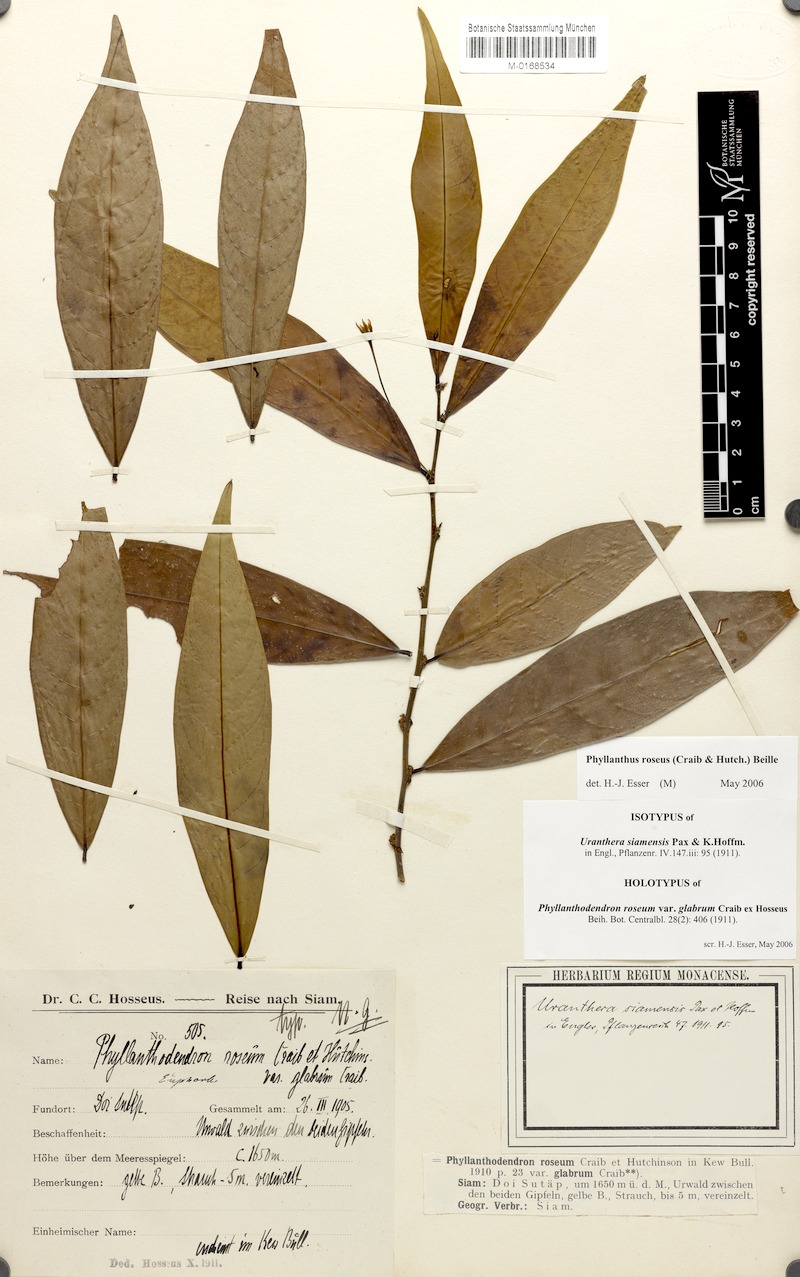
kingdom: Plantae
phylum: Tracheophyta
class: Magnoliopsida
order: Malpighiales
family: Phyllanthaceae
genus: Phyllanthus
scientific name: Phyllanthus roseus
